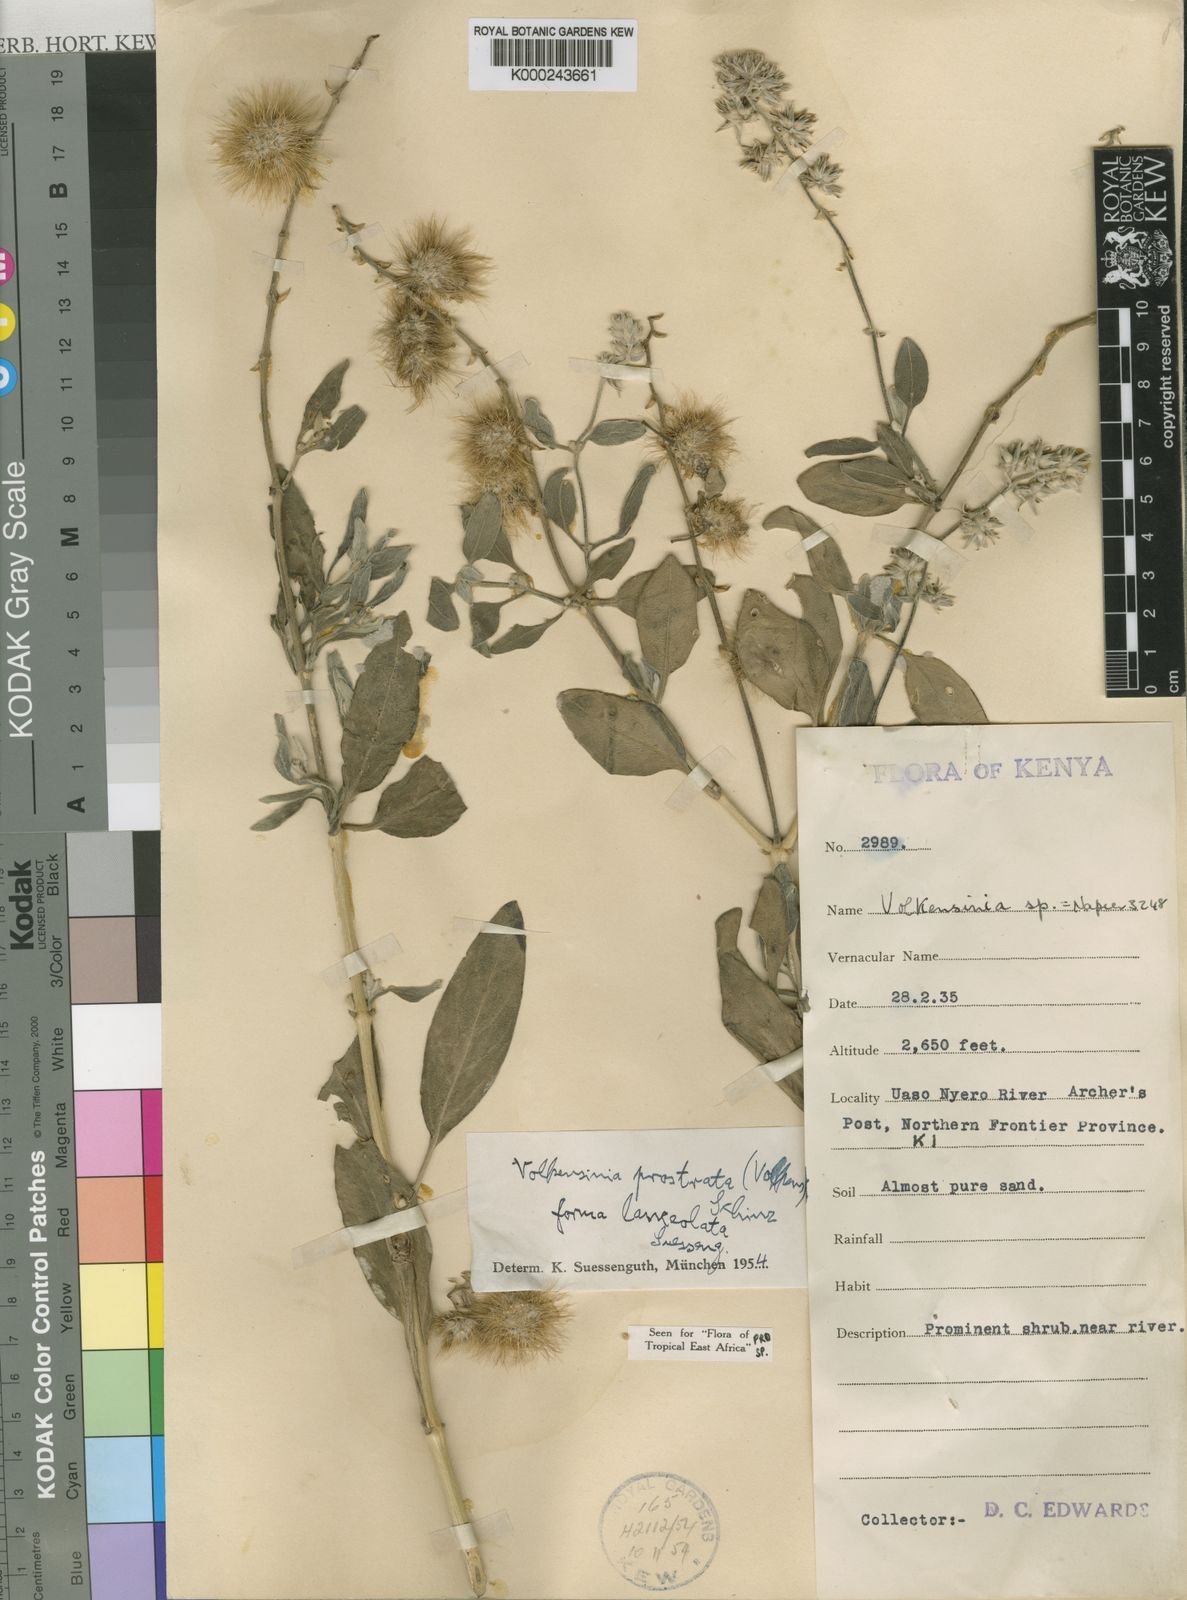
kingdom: Plantae
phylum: Tracheophyta
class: Magnoliopsida
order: Caryophyllales
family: Amaranthaceae
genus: Volkensinia
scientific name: Volkensinia prostrata
